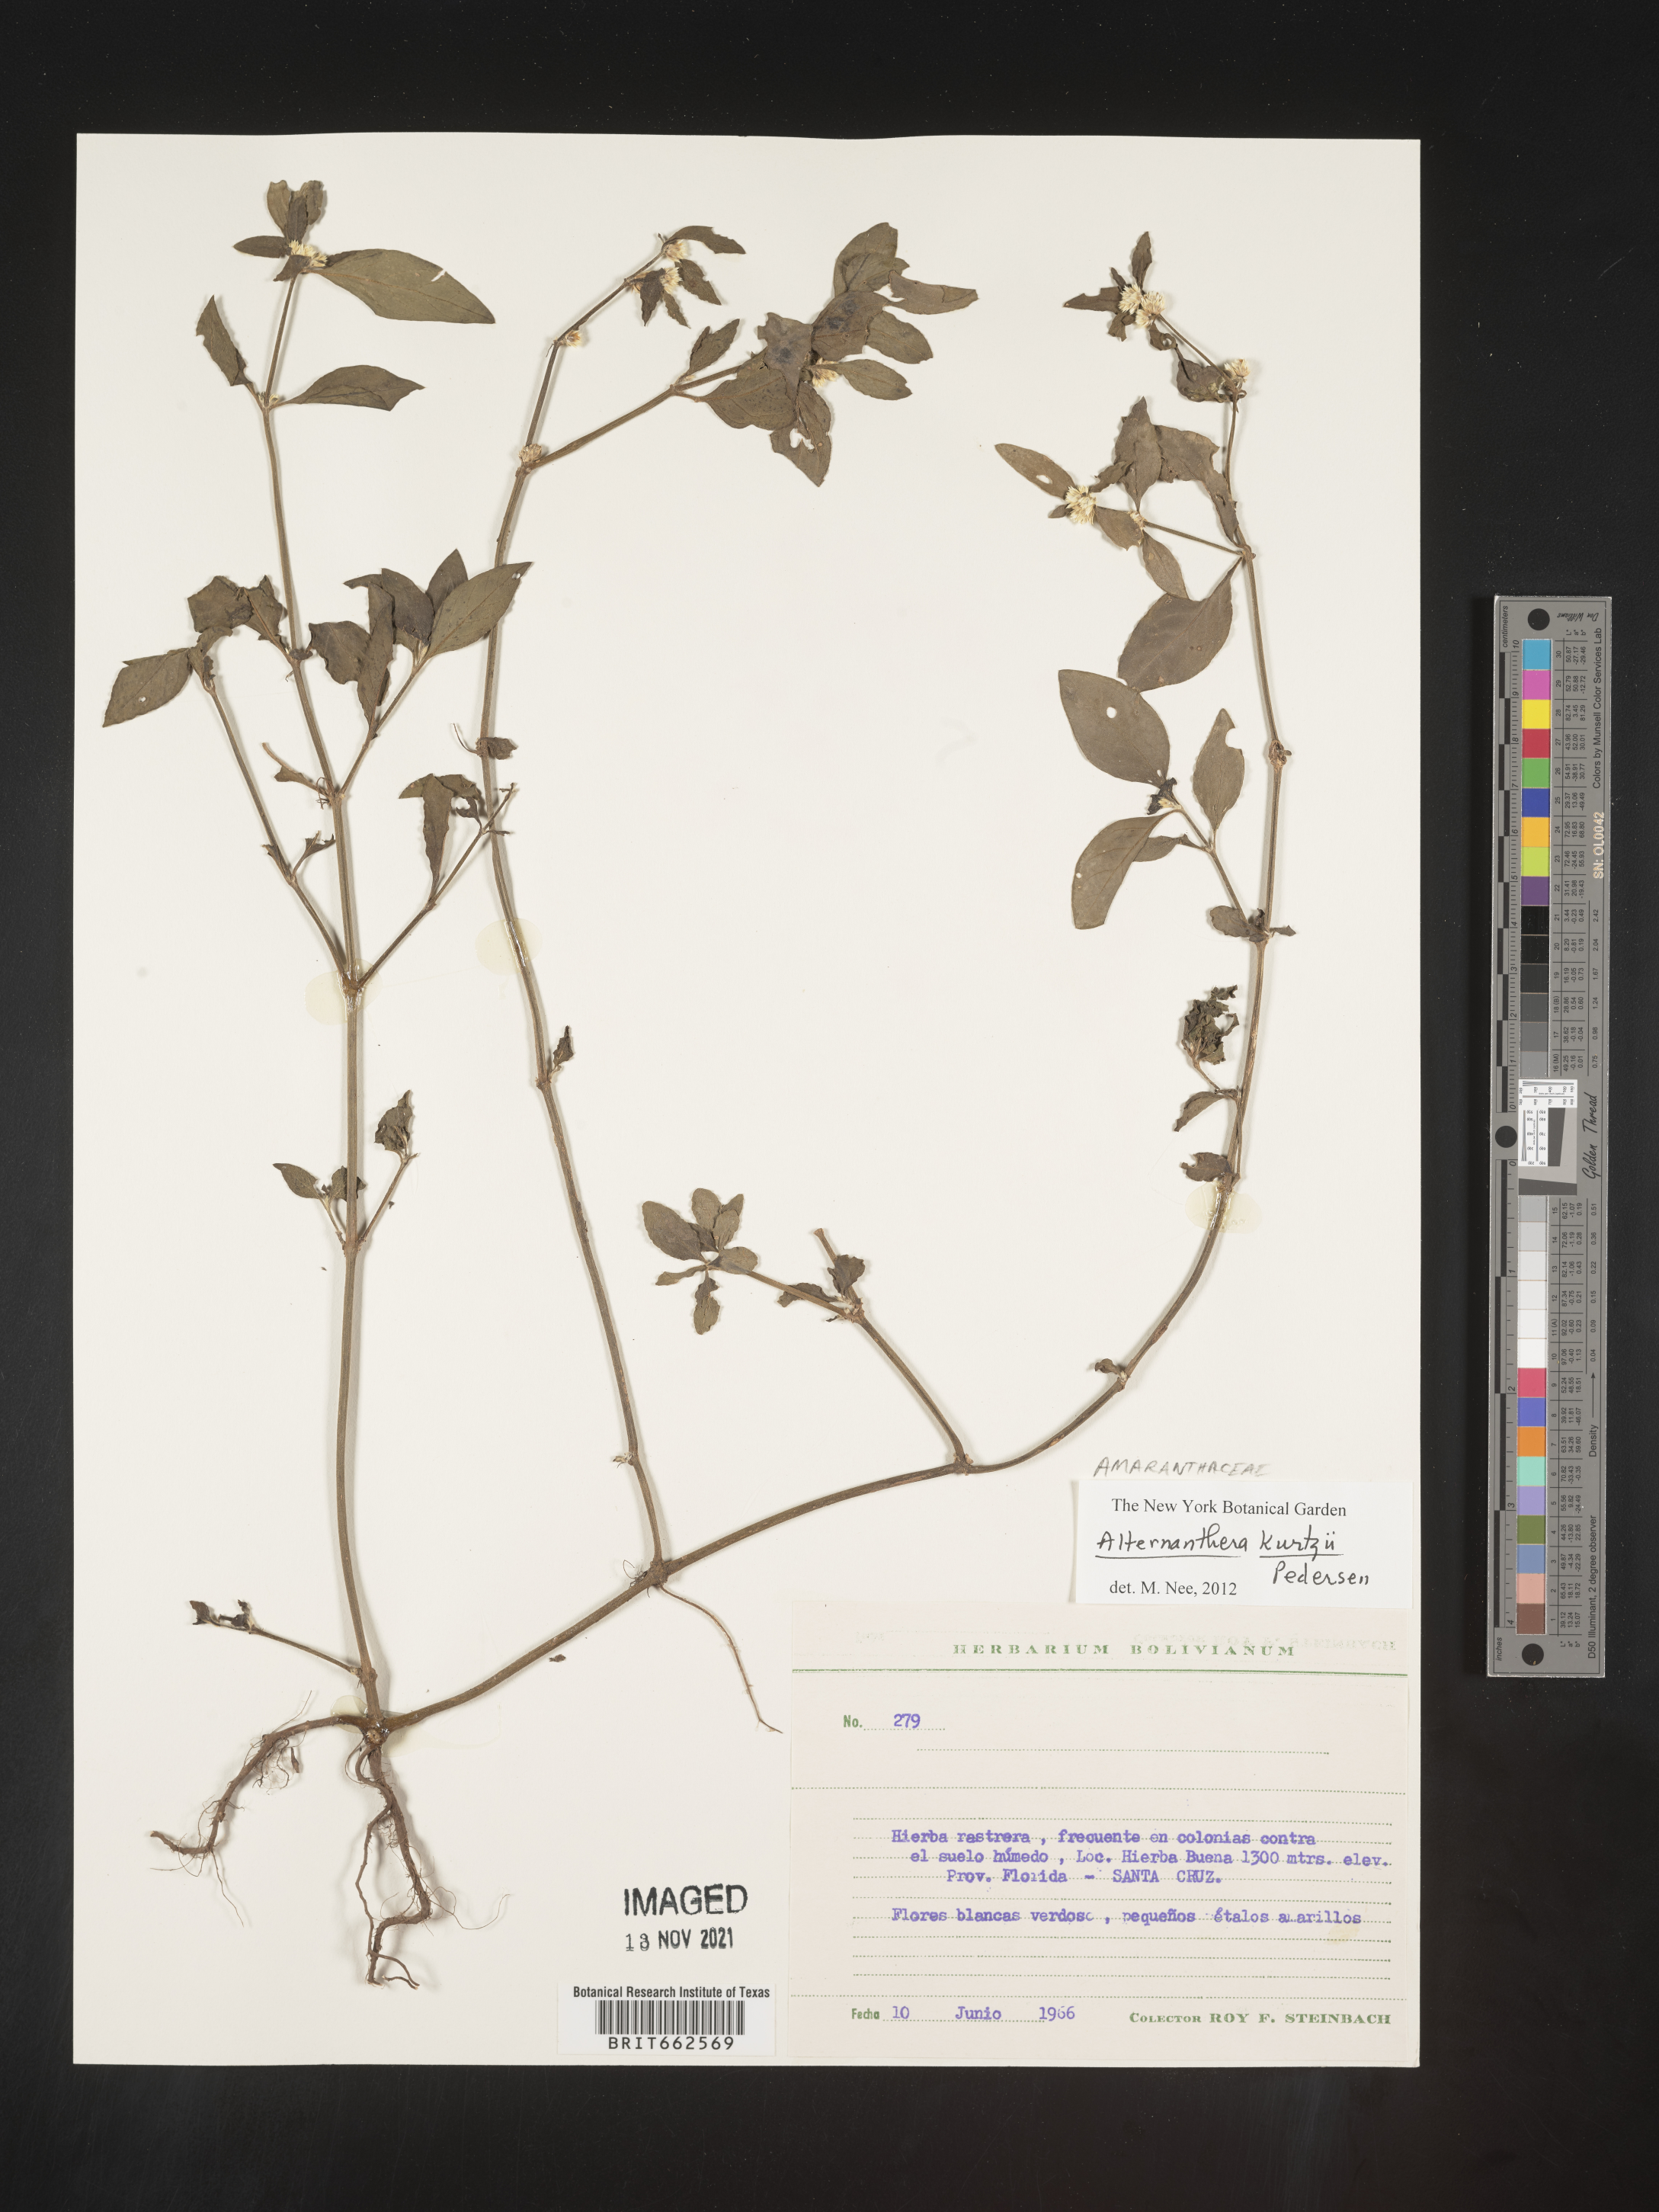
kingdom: Plantae
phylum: Tracheophyta
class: Magnoliopsida
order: Caryophyllales
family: Amaranthaceae
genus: Alternanthera
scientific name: Alternanthera
